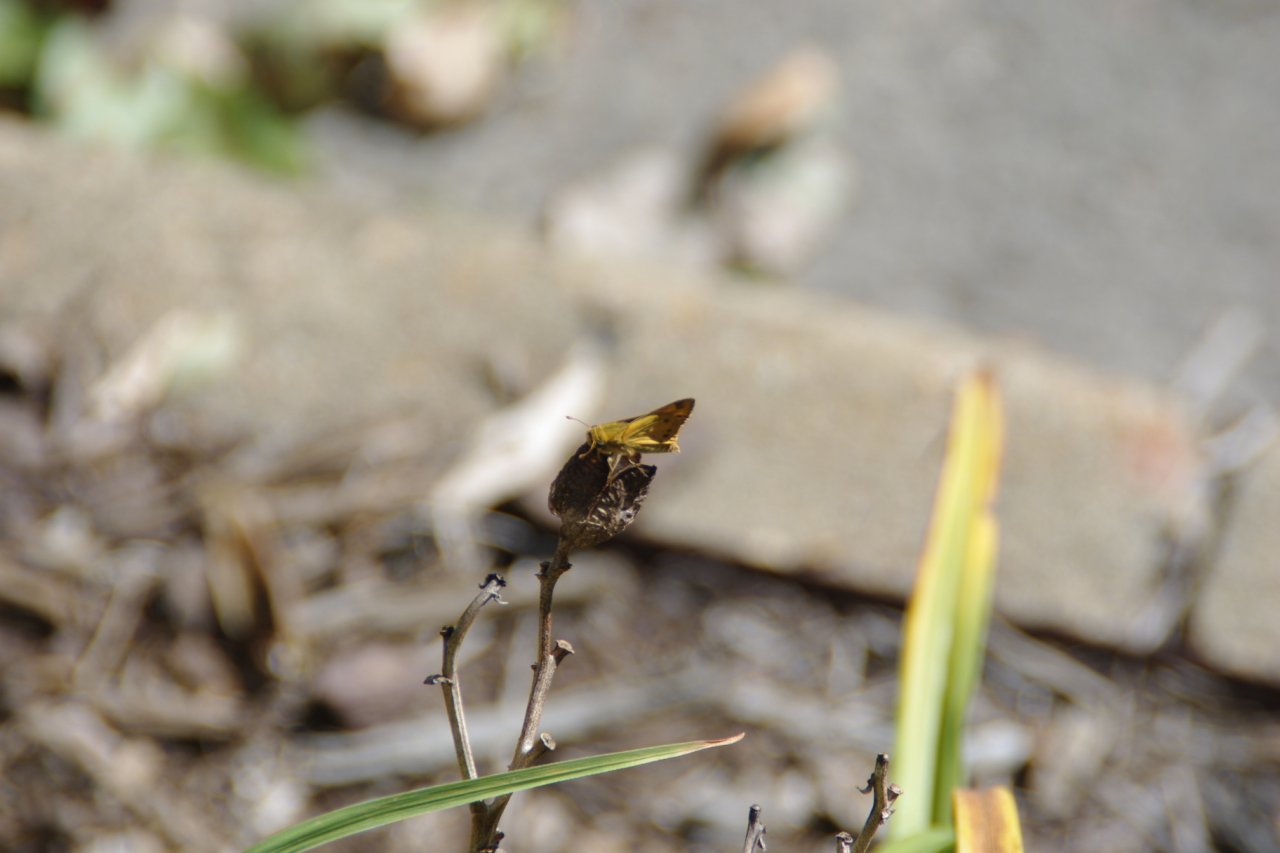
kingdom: Animalia
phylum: Arthropoda
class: Insecta
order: Lepidoptera
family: Hesperiidae
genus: Hylephila
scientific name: Hylephila phyleus
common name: Fiery Skipper
